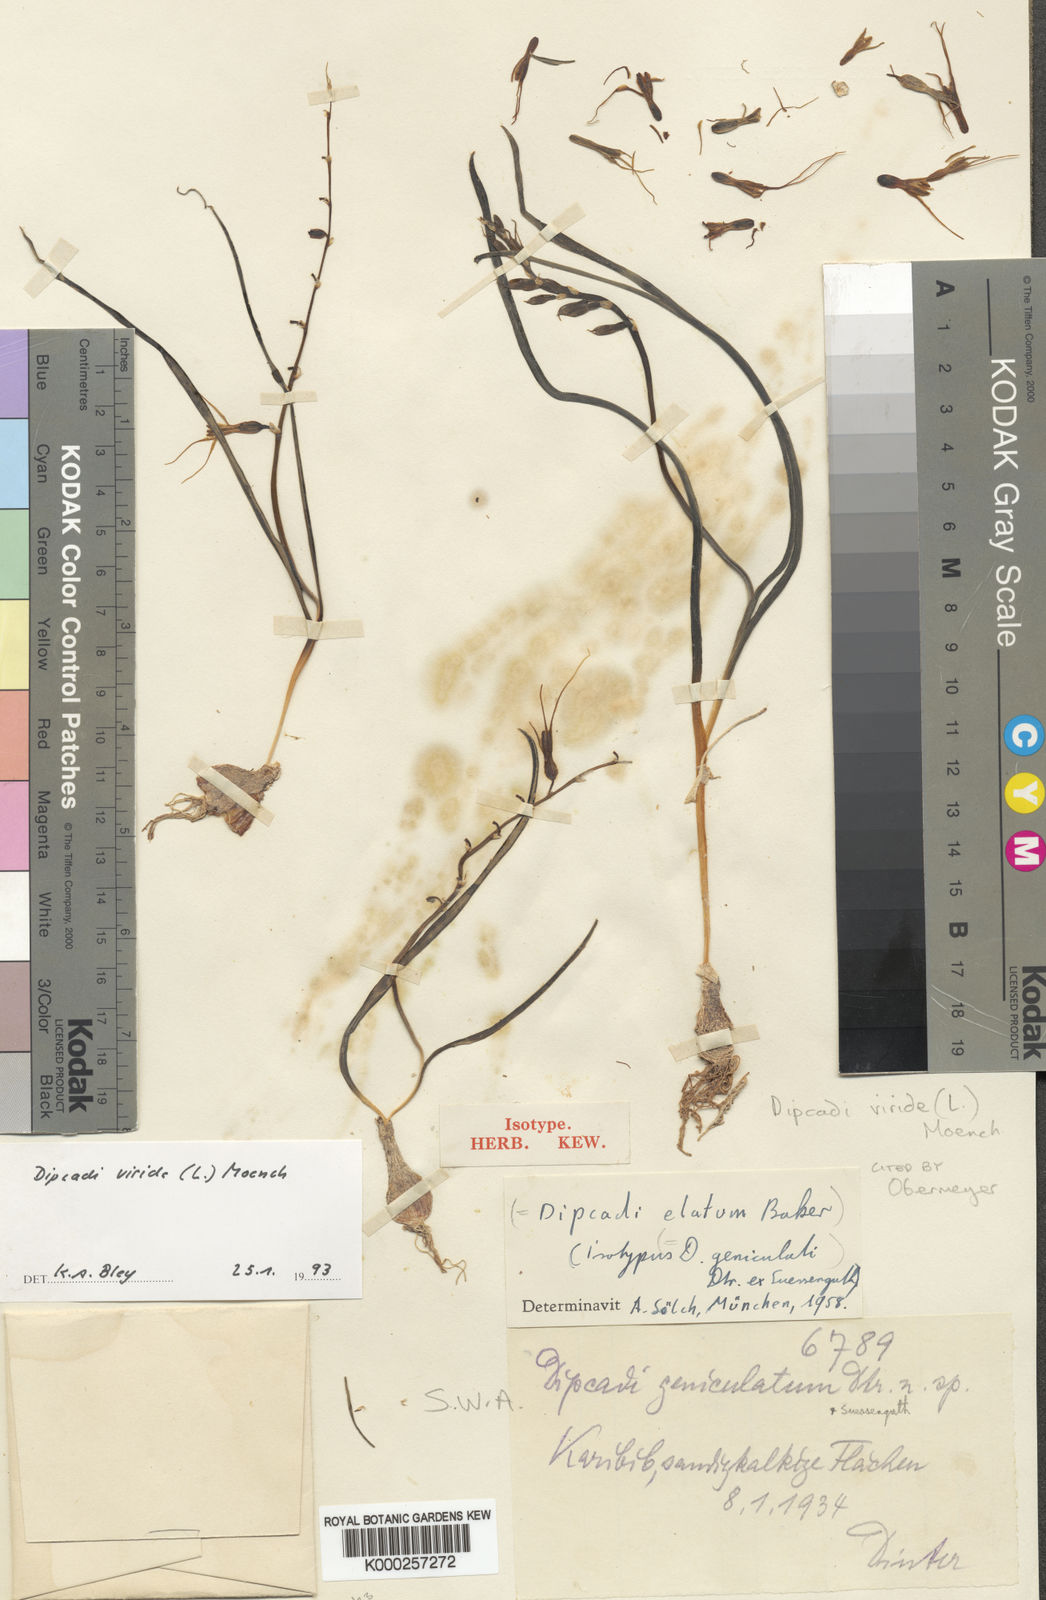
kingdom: Plantae
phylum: Tracheophyta
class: Liliopsida
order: Asparagales
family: Asparagaceae
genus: Dipcadi
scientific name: Dipcadi viride
